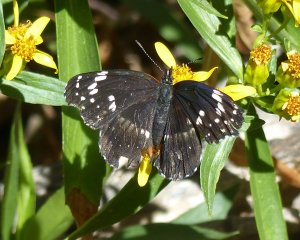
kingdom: Animalia
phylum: Arthropoda
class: Insecta
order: Lepidoptera
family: Nymphalidae
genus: Chlosyne
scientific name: Chlosyne lacinia
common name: Bordered Patch
